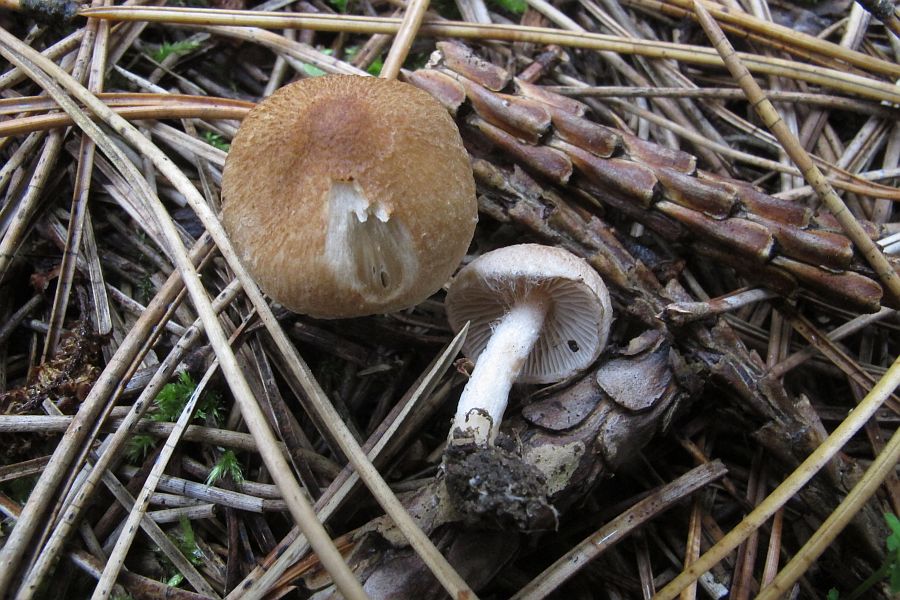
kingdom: Fungi
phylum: Basidiomycota
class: Agaricomycetes
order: Agaricales
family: Inocybaceae
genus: Inocybe
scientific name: Inocybe
